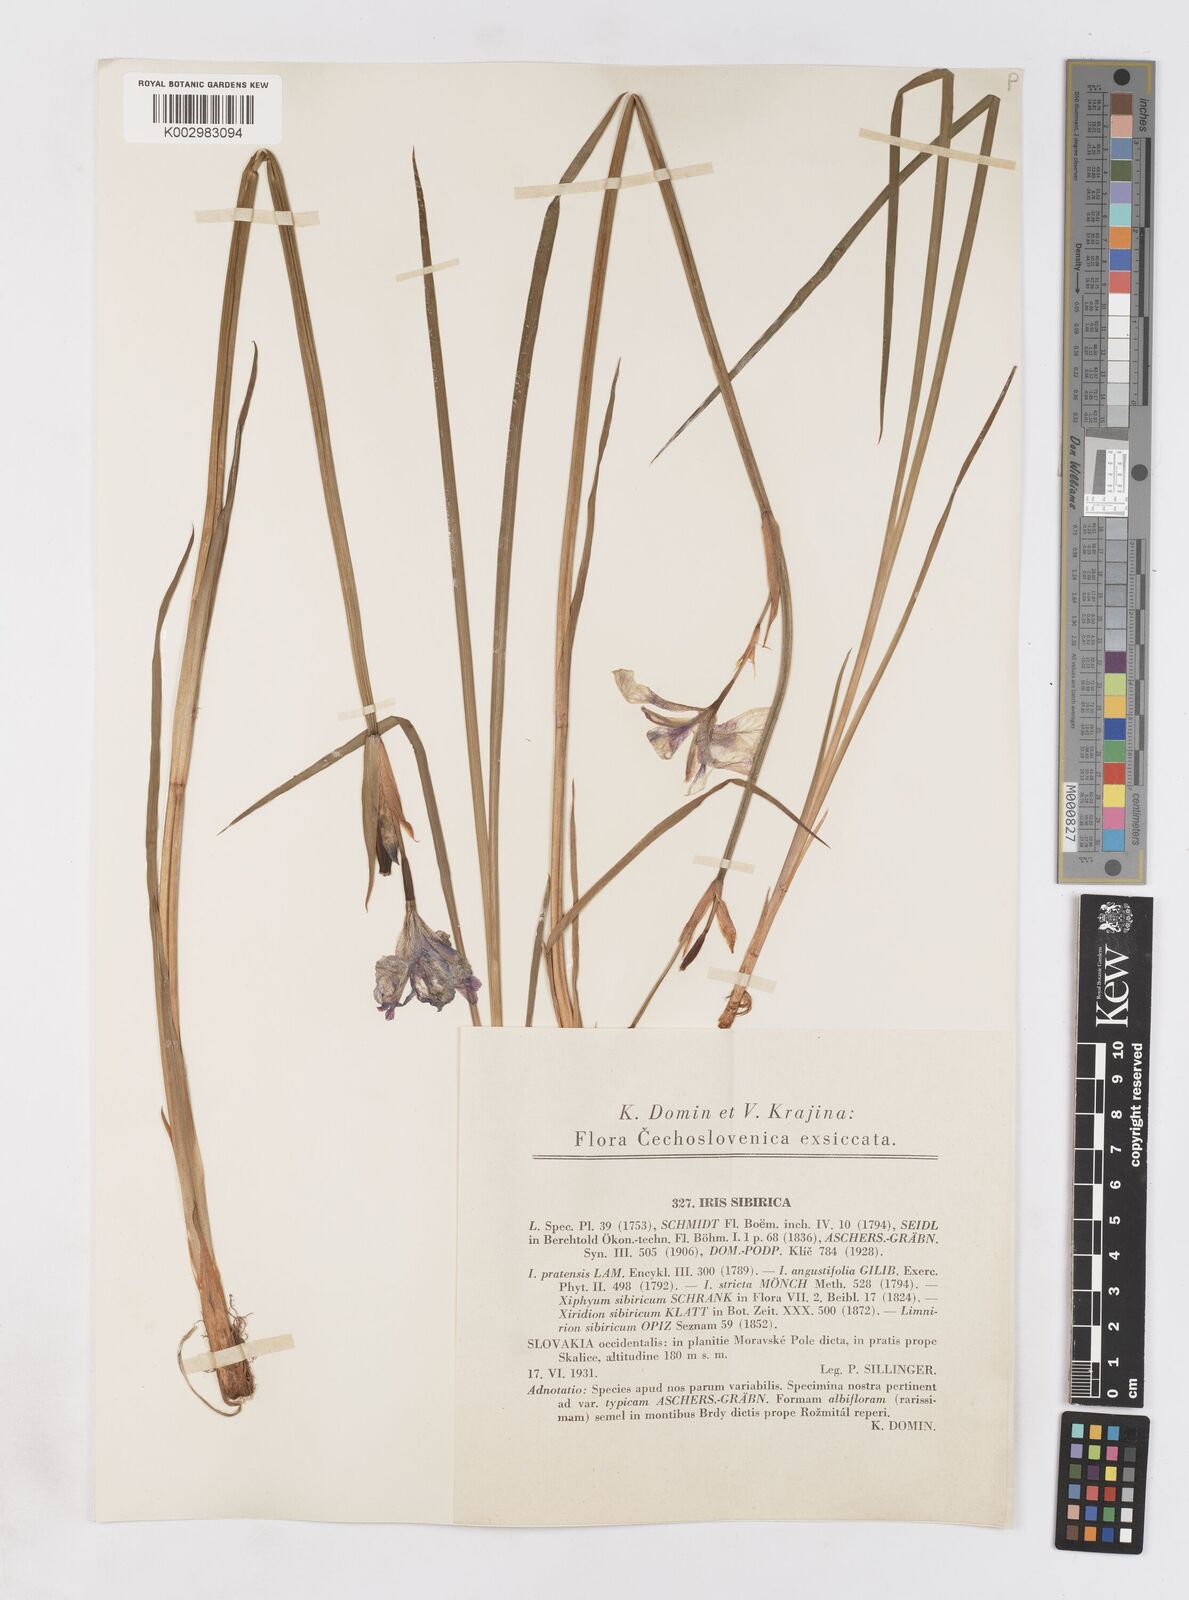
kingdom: Plantae
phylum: Tracheophyta
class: Liliopsida
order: Asparagales
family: Iridaceae
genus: Iris
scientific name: Iris sibirica
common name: Siberian iris
